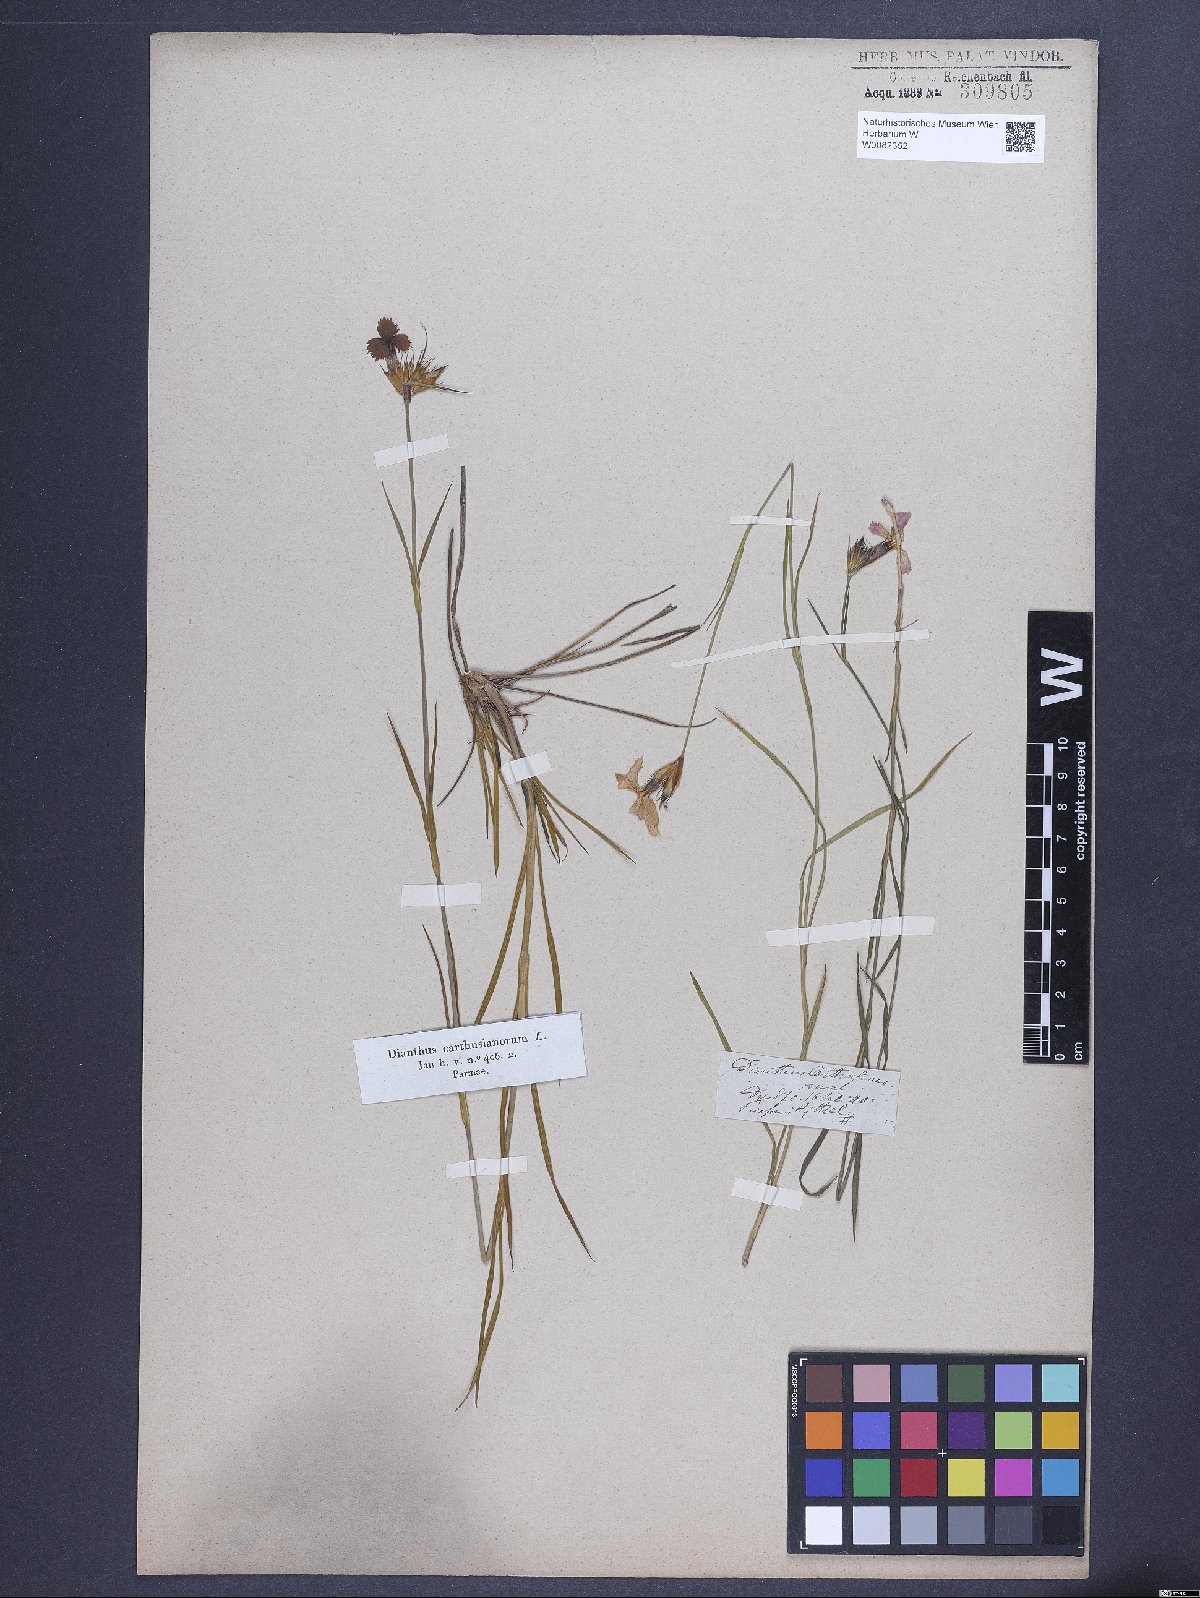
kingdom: Plantae
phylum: Tracheophyta
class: Magnoliopsida
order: Caryophyllales
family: Caryophyllaceae
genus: Dianthus
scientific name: Dianthus carthusianorum
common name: Carthusian pink
